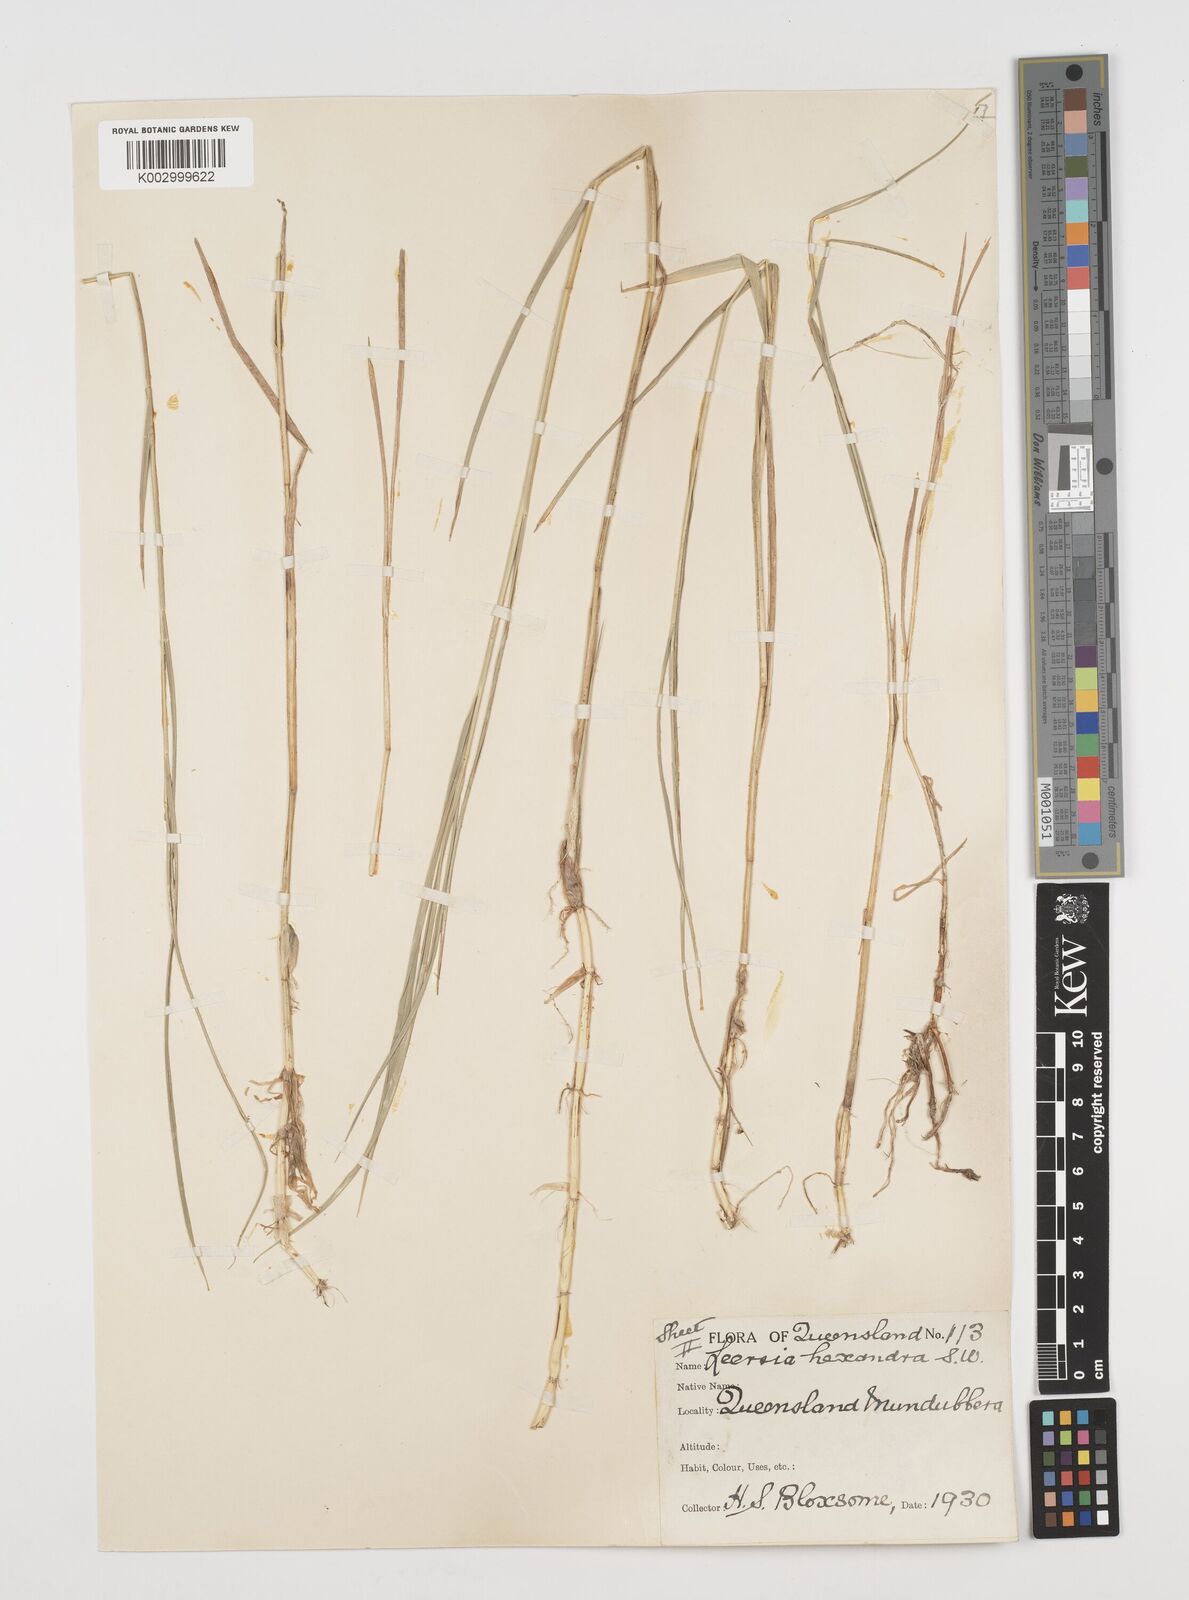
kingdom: Plantae
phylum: Tracheophyta
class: Liliopsida
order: Poales
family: Poaceae
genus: Leersia
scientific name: Leersia hexandra
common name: Southern cut grass
